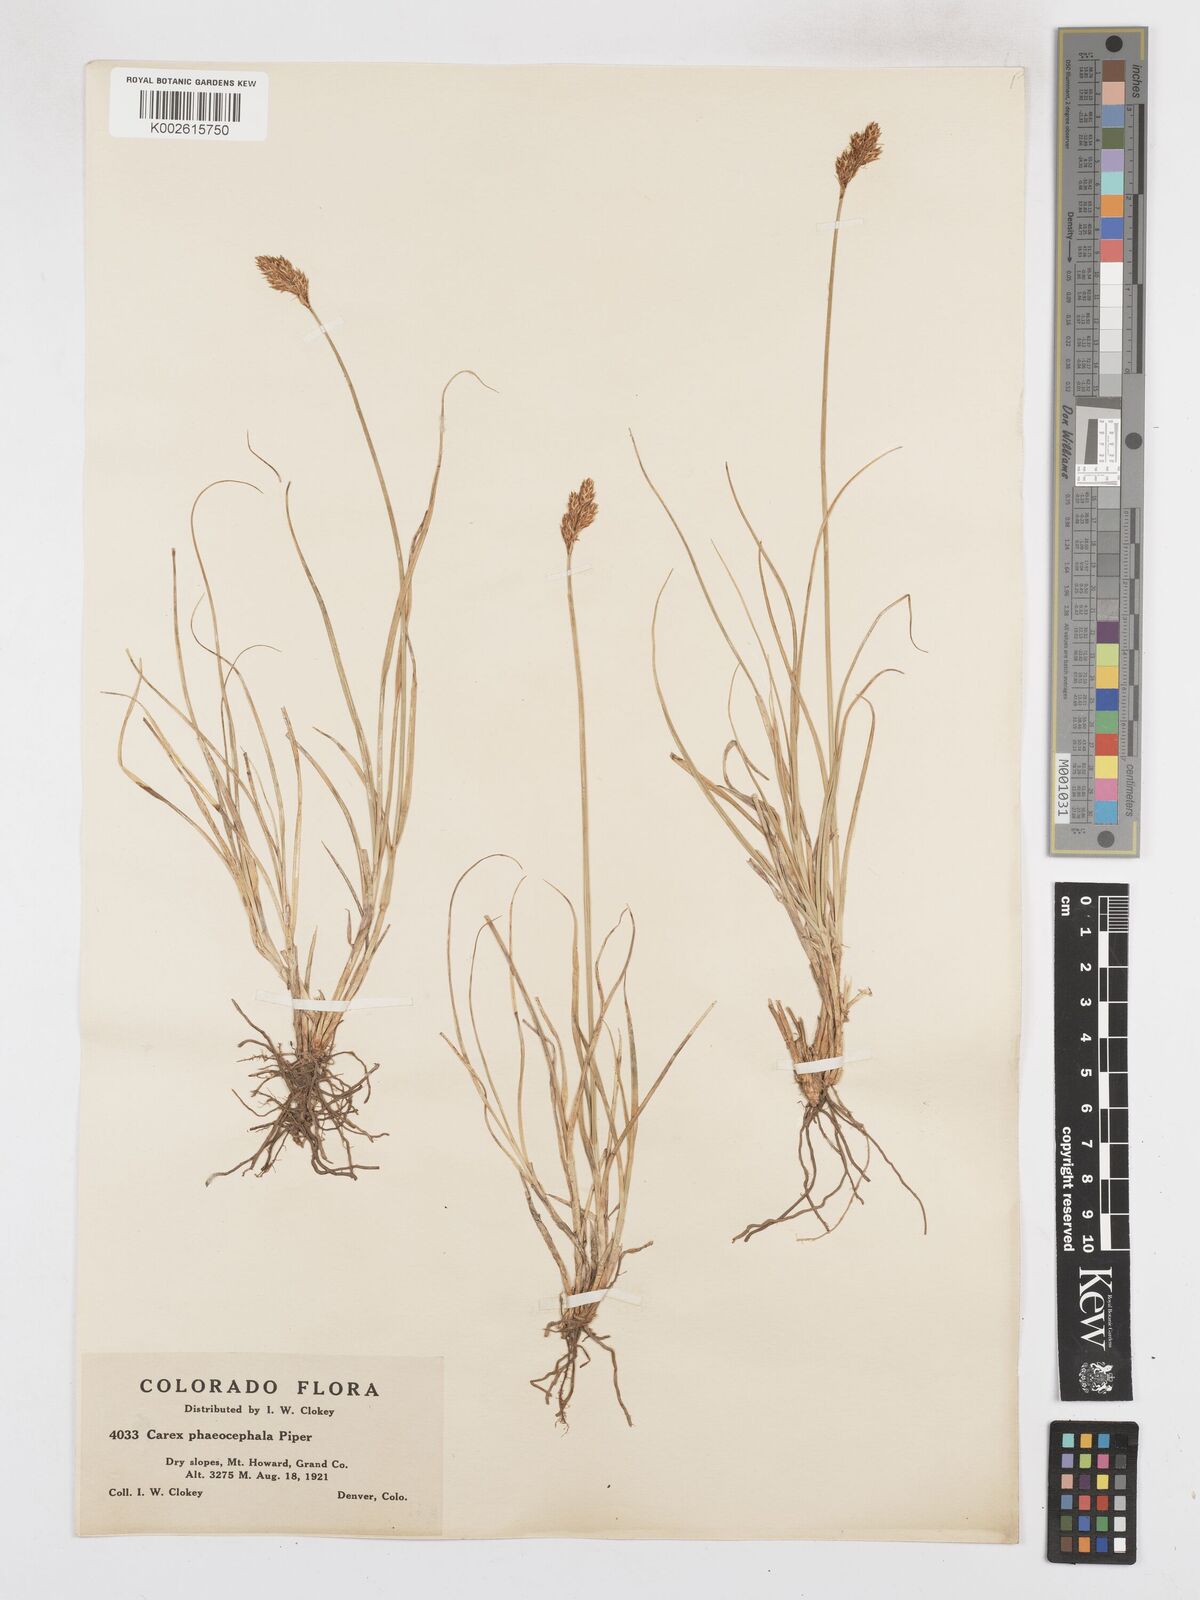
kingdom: Plantae
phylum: Tracheophyta
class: Liliopsida
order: Poales
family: Cyperaceae
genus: Carex
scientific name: Carex phaeocephala
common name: Brown-head sedge
